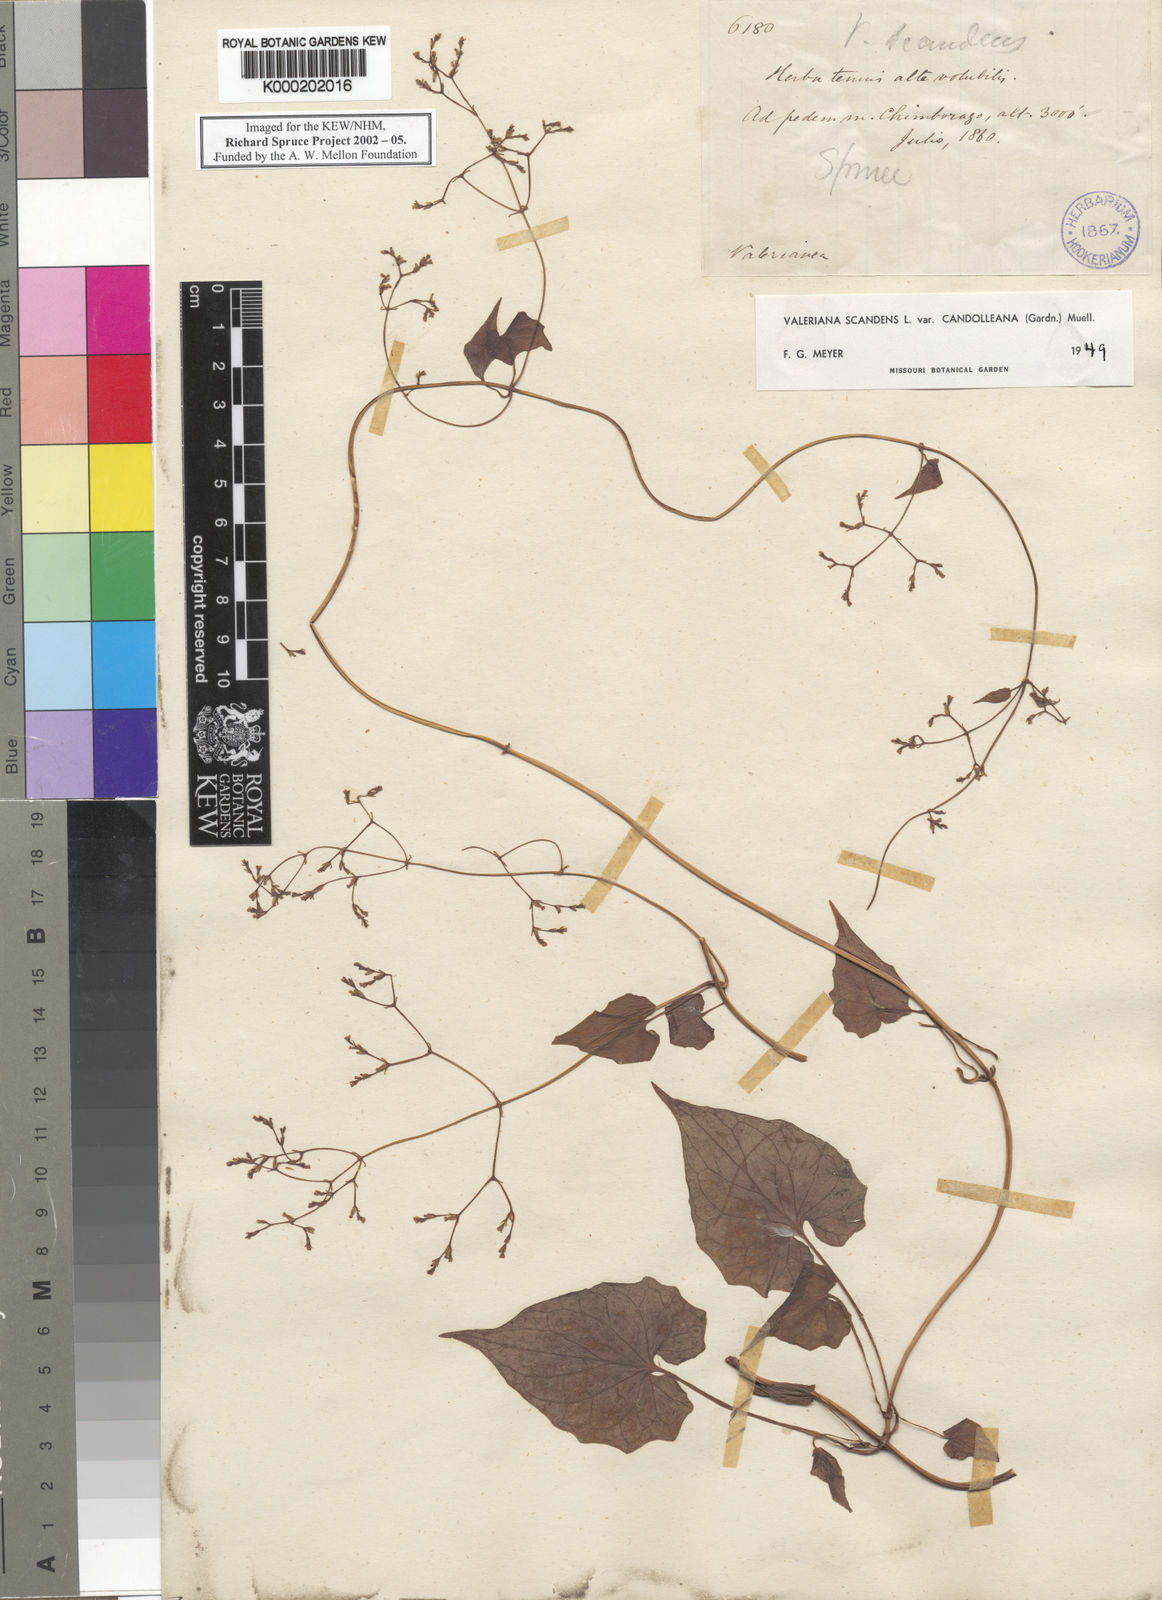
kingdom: Plantae
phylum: Tracheophyta
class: Magnoliopsida
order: Dipsacales
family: Caprifoliaceae
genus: Valeriana
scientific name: Valeriana
